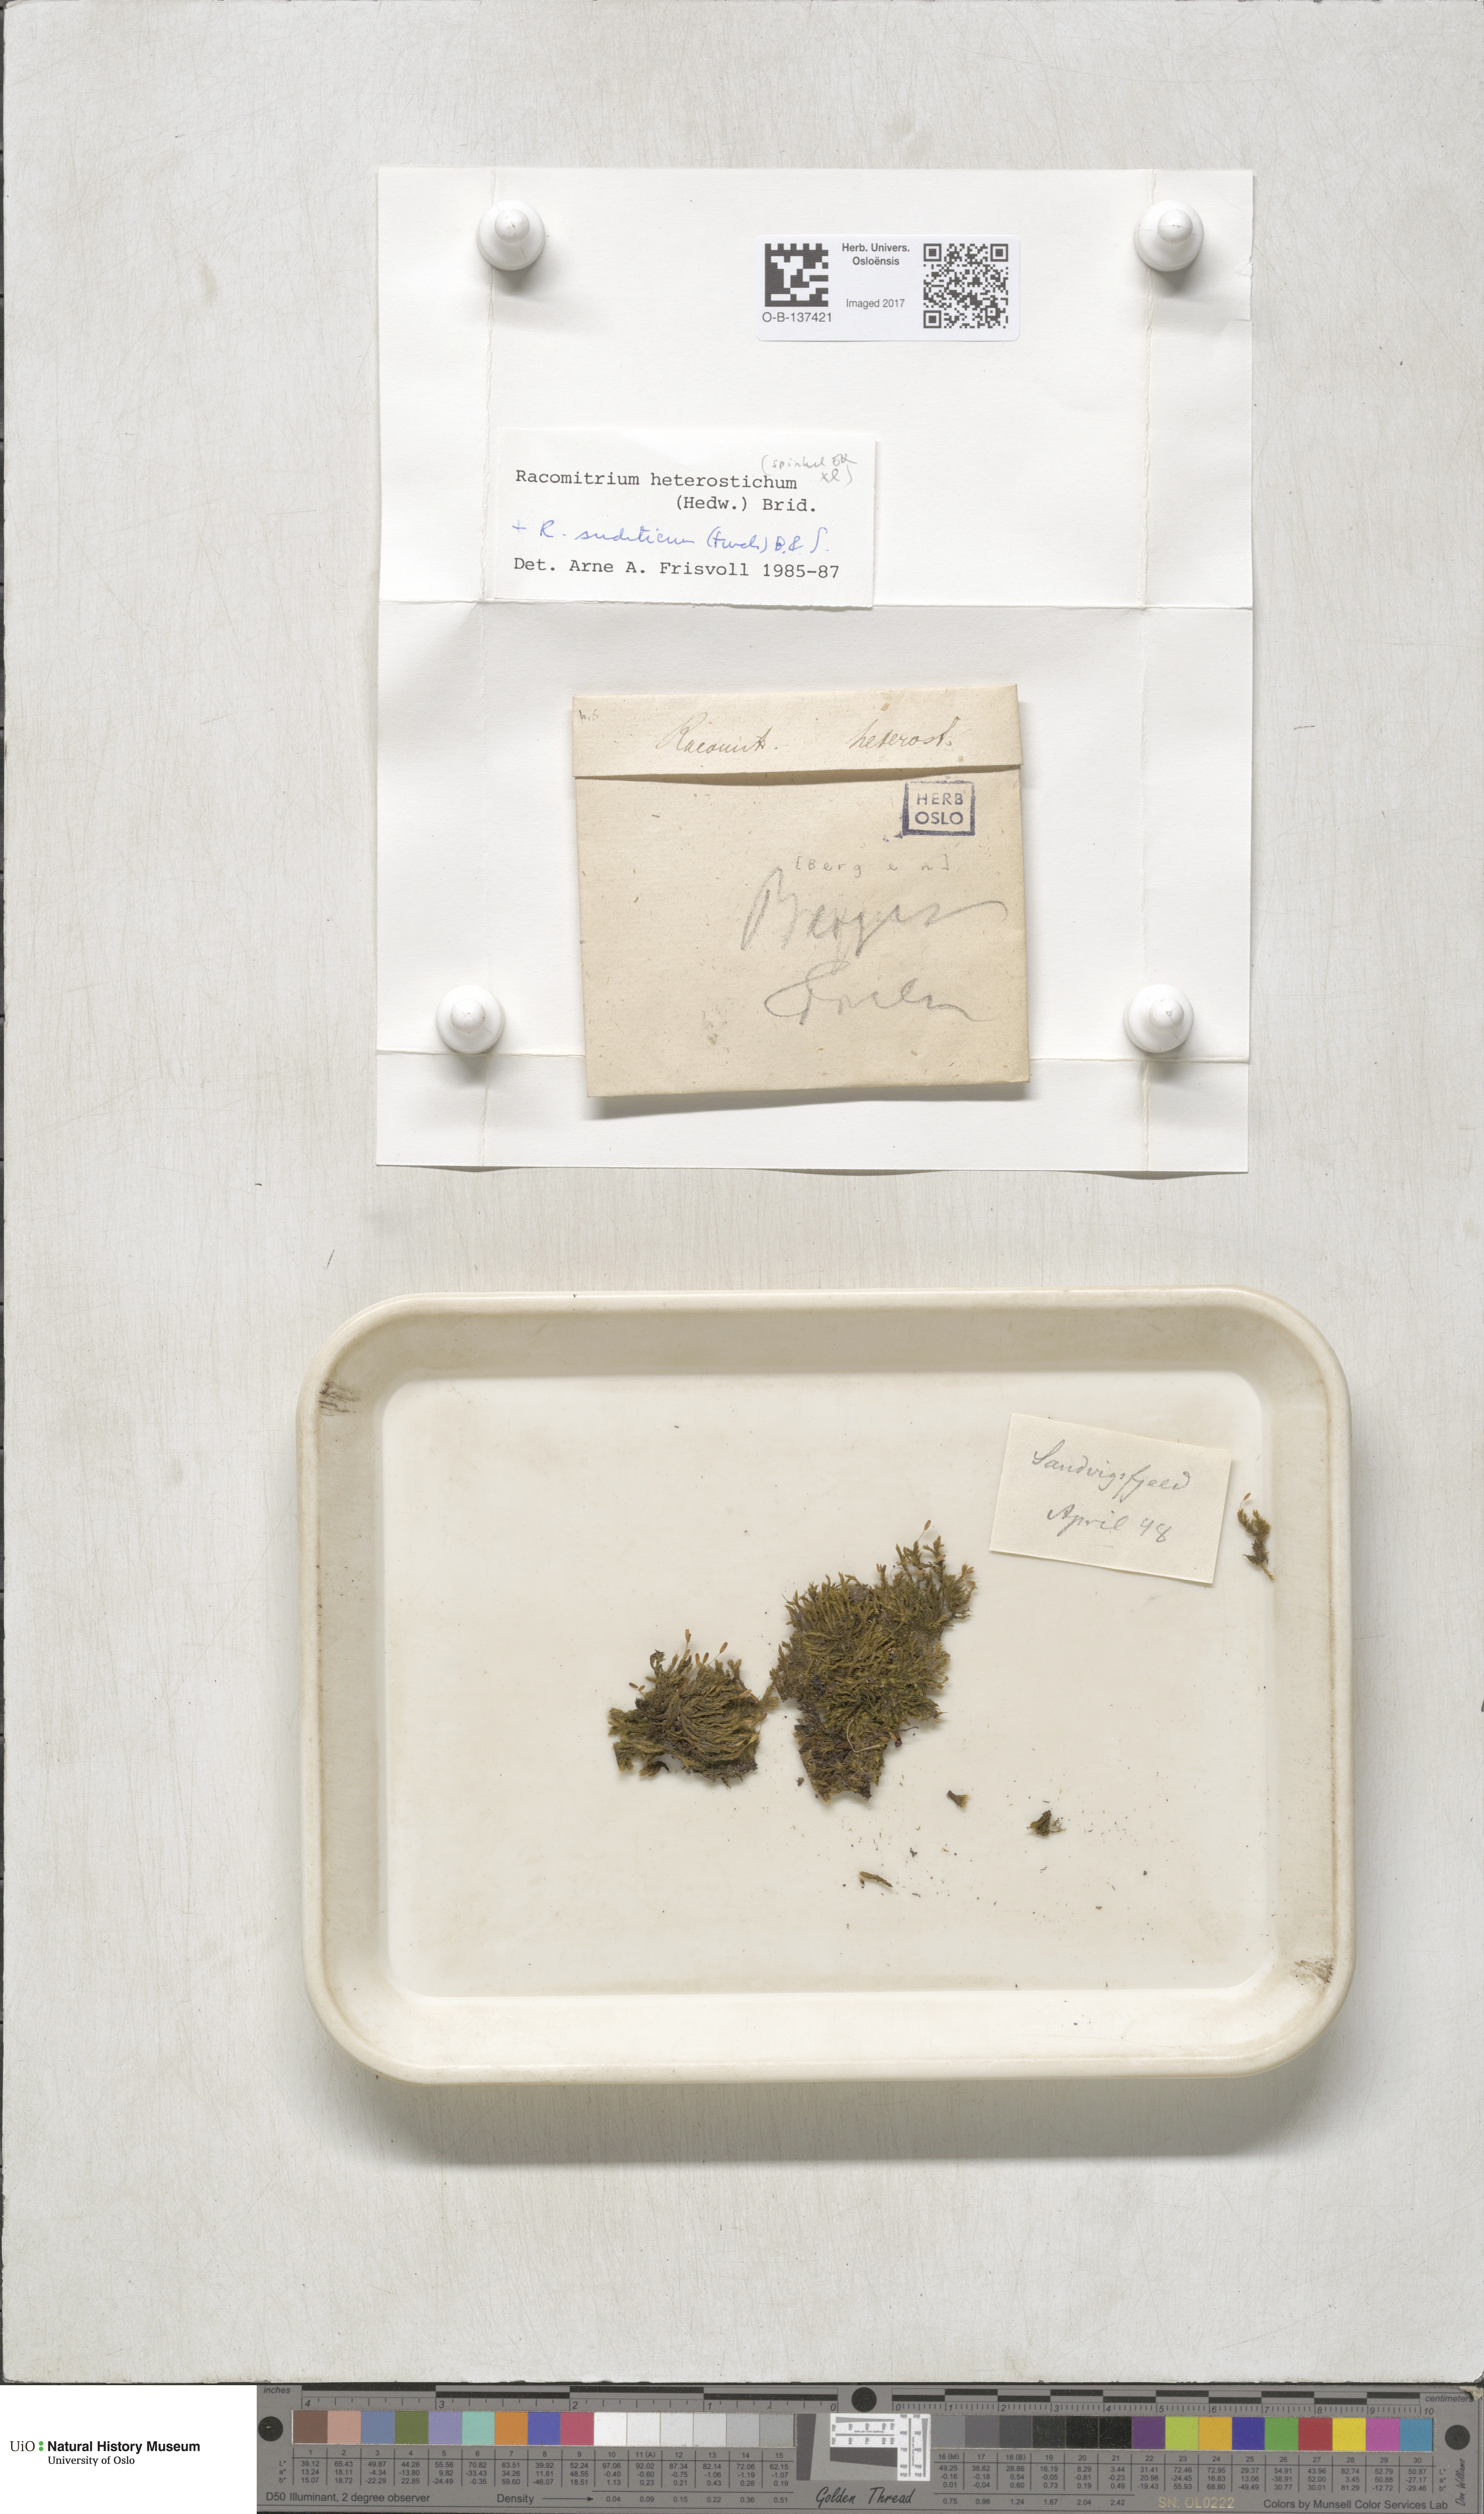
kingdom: Plantae
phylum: Bryophyta
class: Bryopsida
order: Grimmiales
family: Grimmiaceae
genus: Bucklandiella
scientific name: Bucklandiella heterosticha
